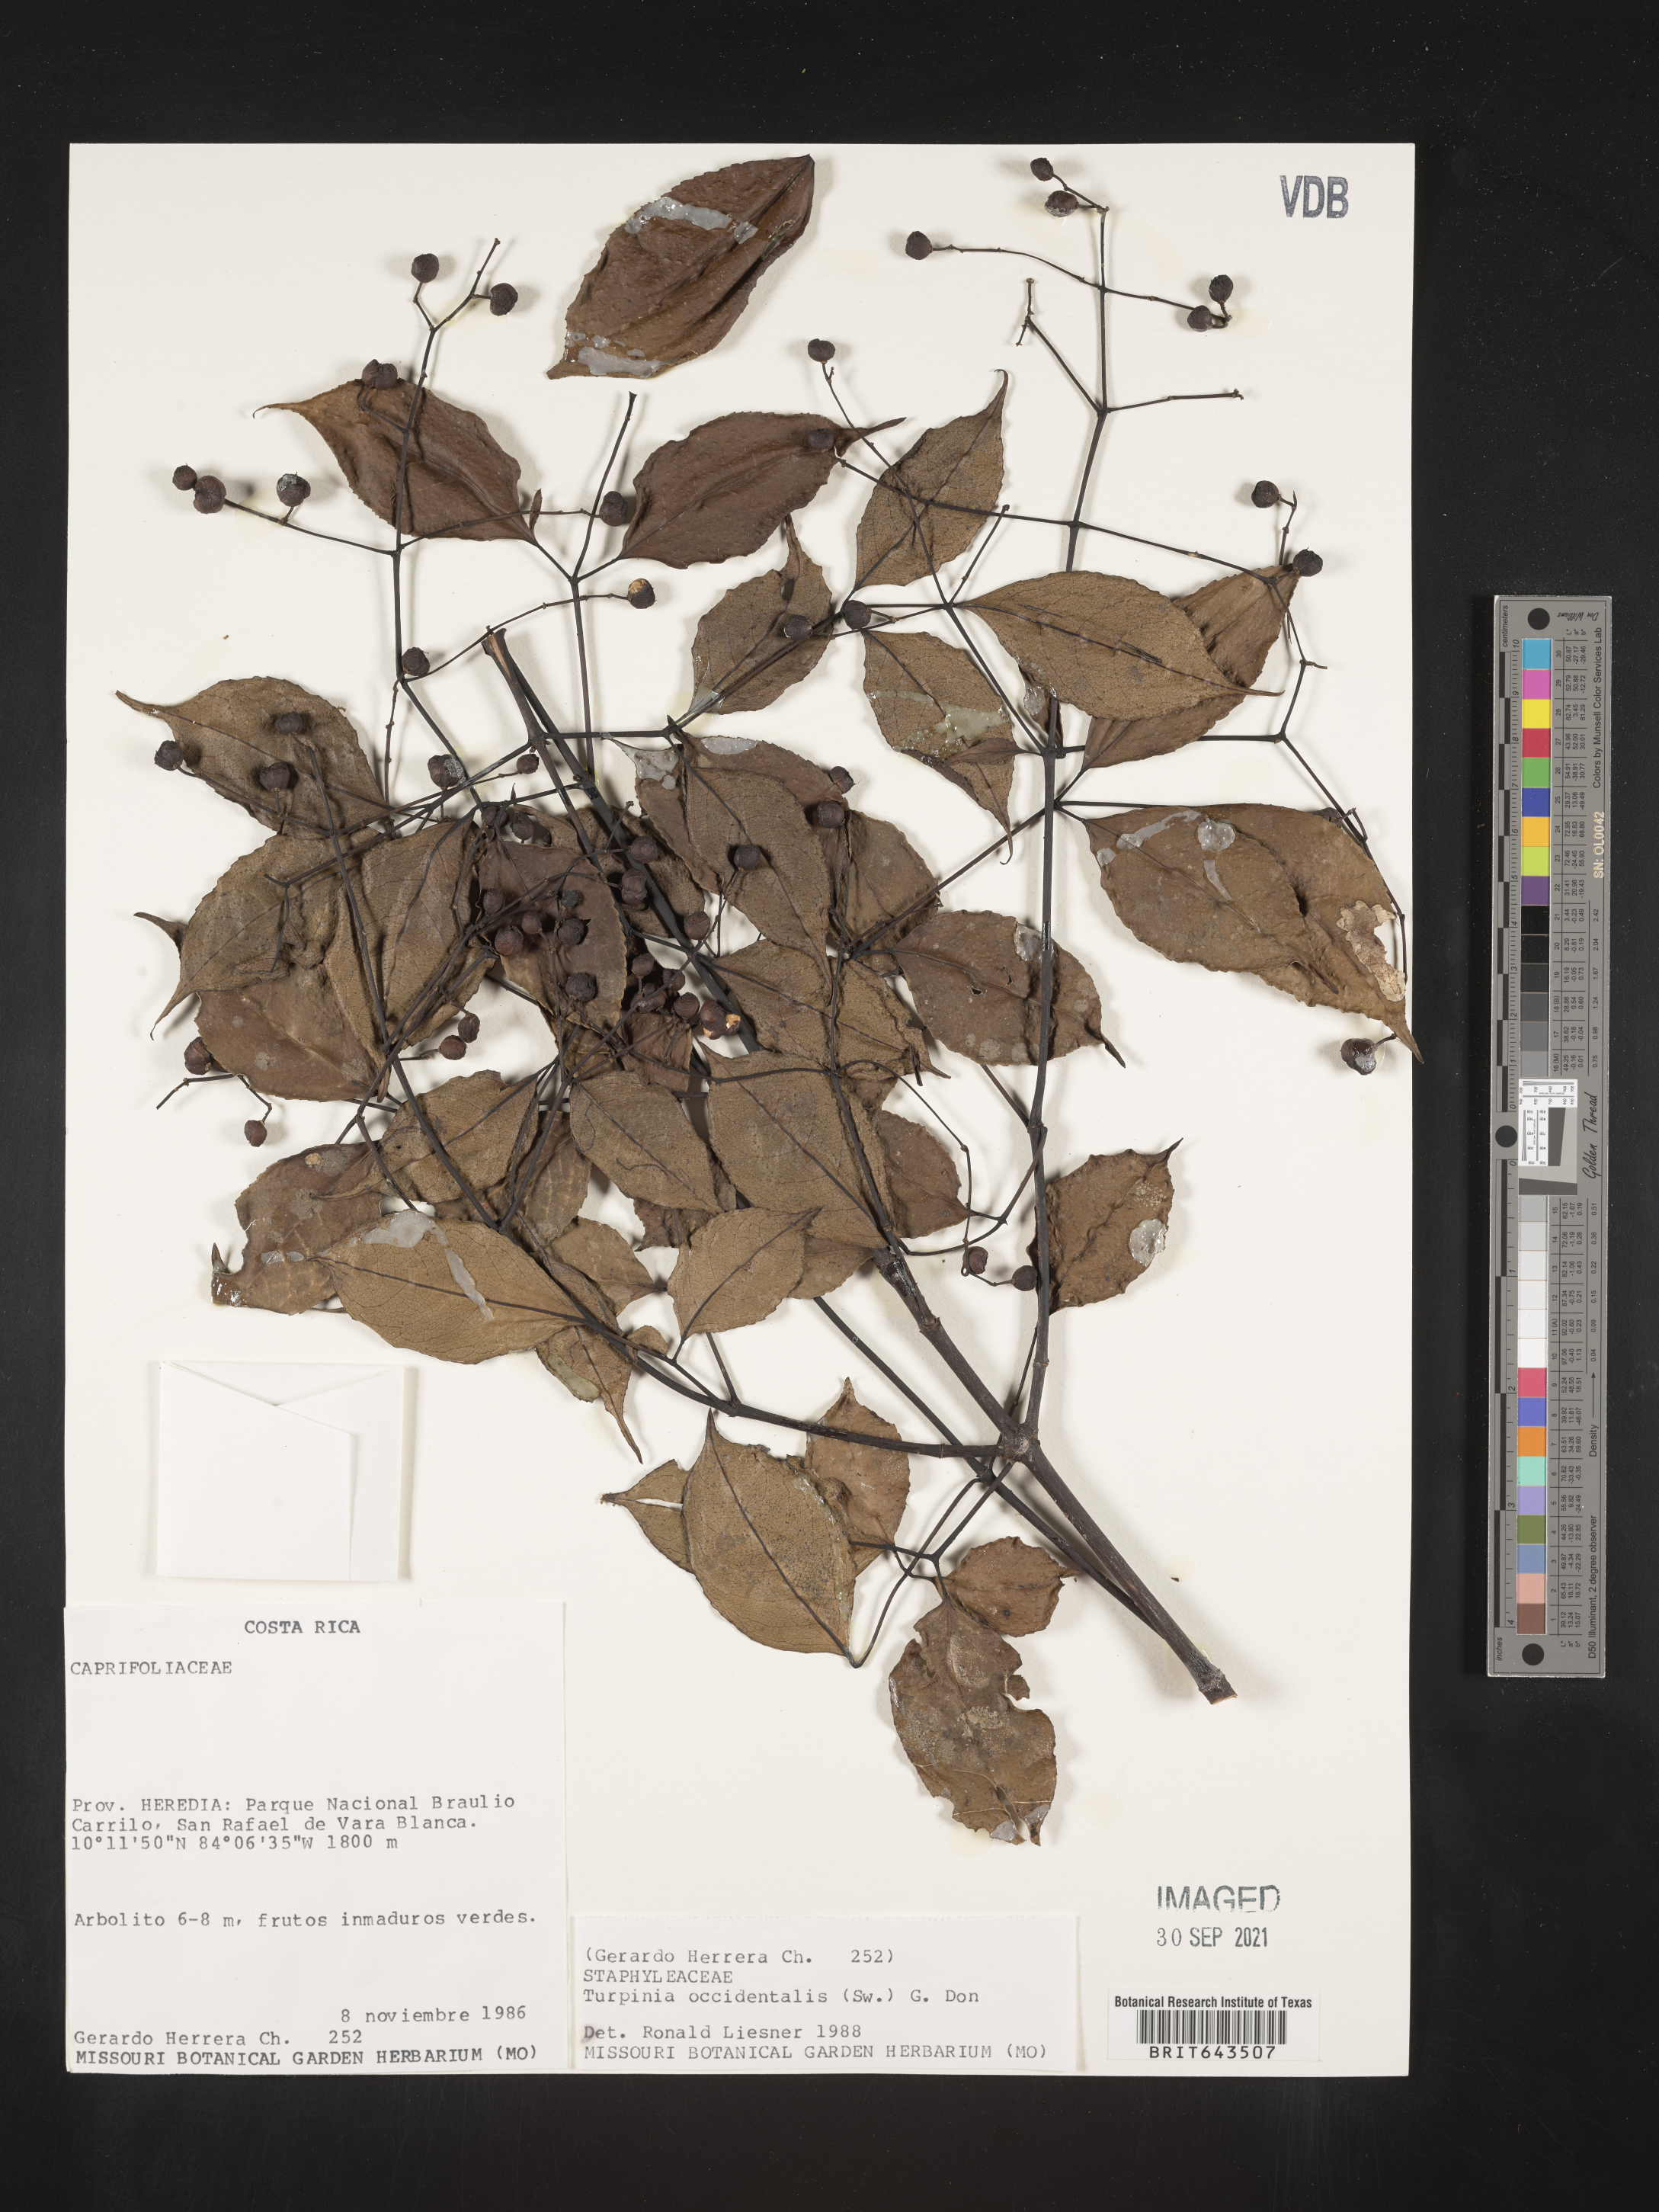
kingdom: Plantae
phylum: Tracheophyta
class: Magnoliopsida
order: Crossosomatales
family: Staphyleaceae
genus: Turpinia
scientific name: Turpinia
